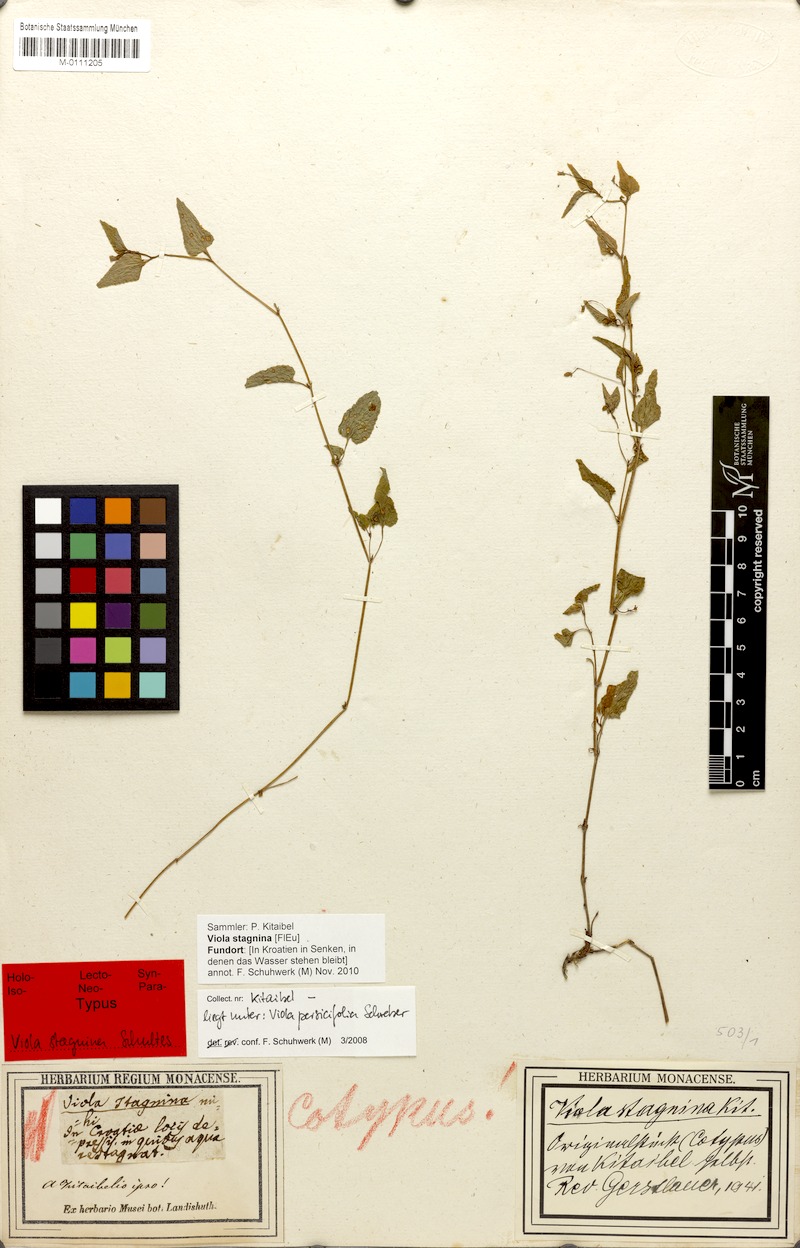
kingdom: Plantae
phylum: Tracheophyta
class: Magnoliopsida
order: Malpighiales
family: Violaceae
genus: Viola
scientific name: Viola stagnina
